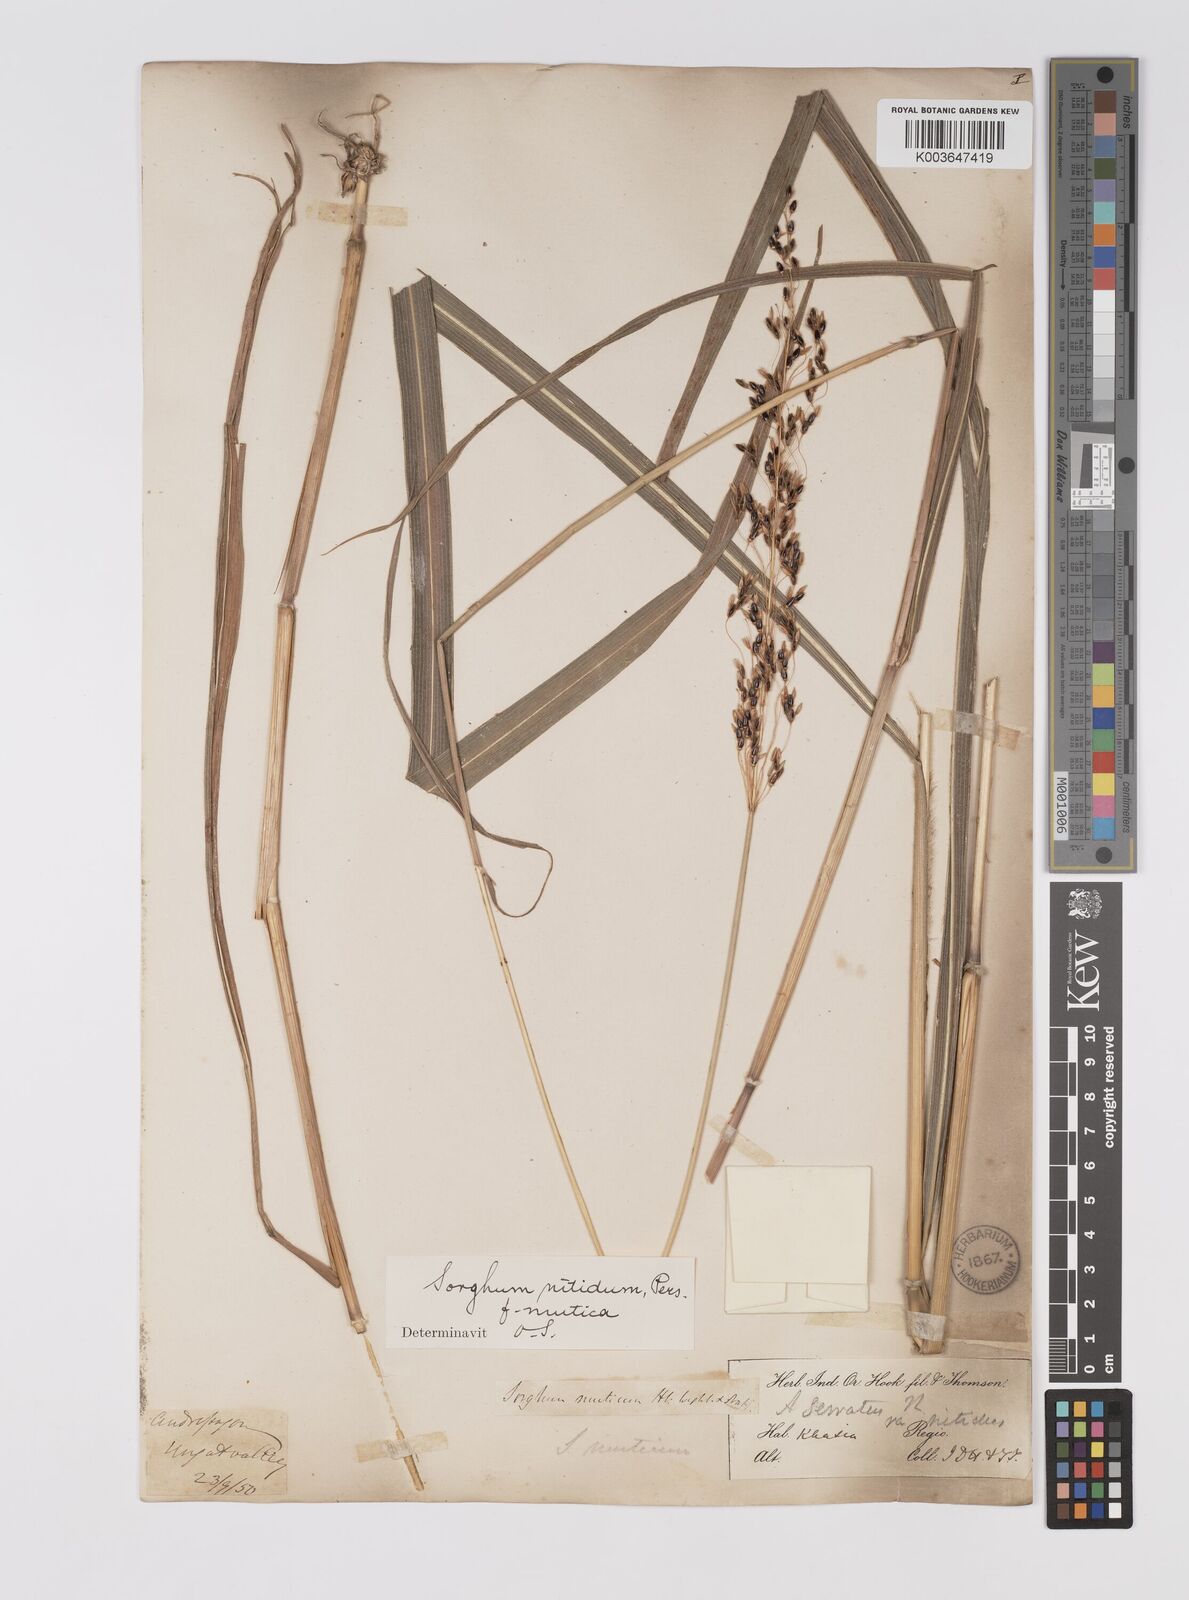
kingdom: Plantae
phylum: Tracheophyta
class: Liliopsida
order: Poales
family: Poaceae
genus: Sorghum
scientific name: Sorghum nitidum
